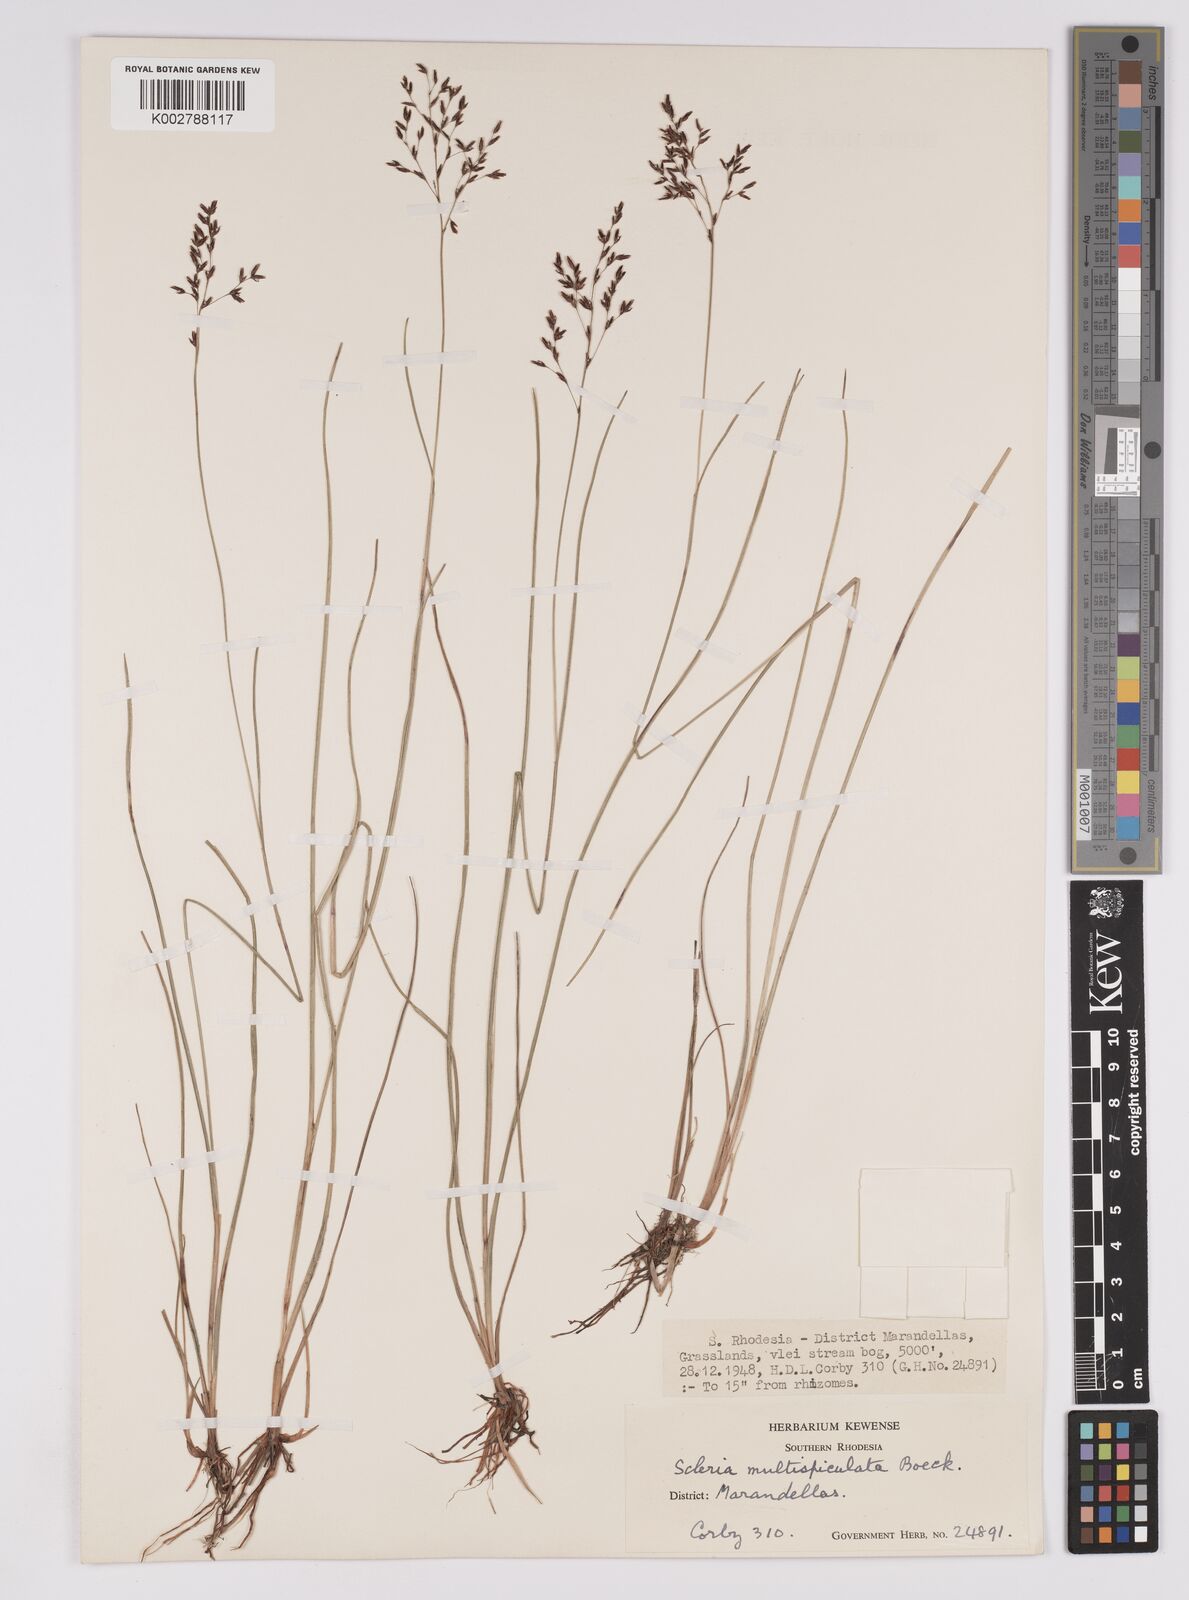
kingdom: Plantae
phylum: Tracheophyta
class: Liliopsida
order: Poales
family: Cyperaceae
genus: Scleria
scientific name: Scleria pooides
